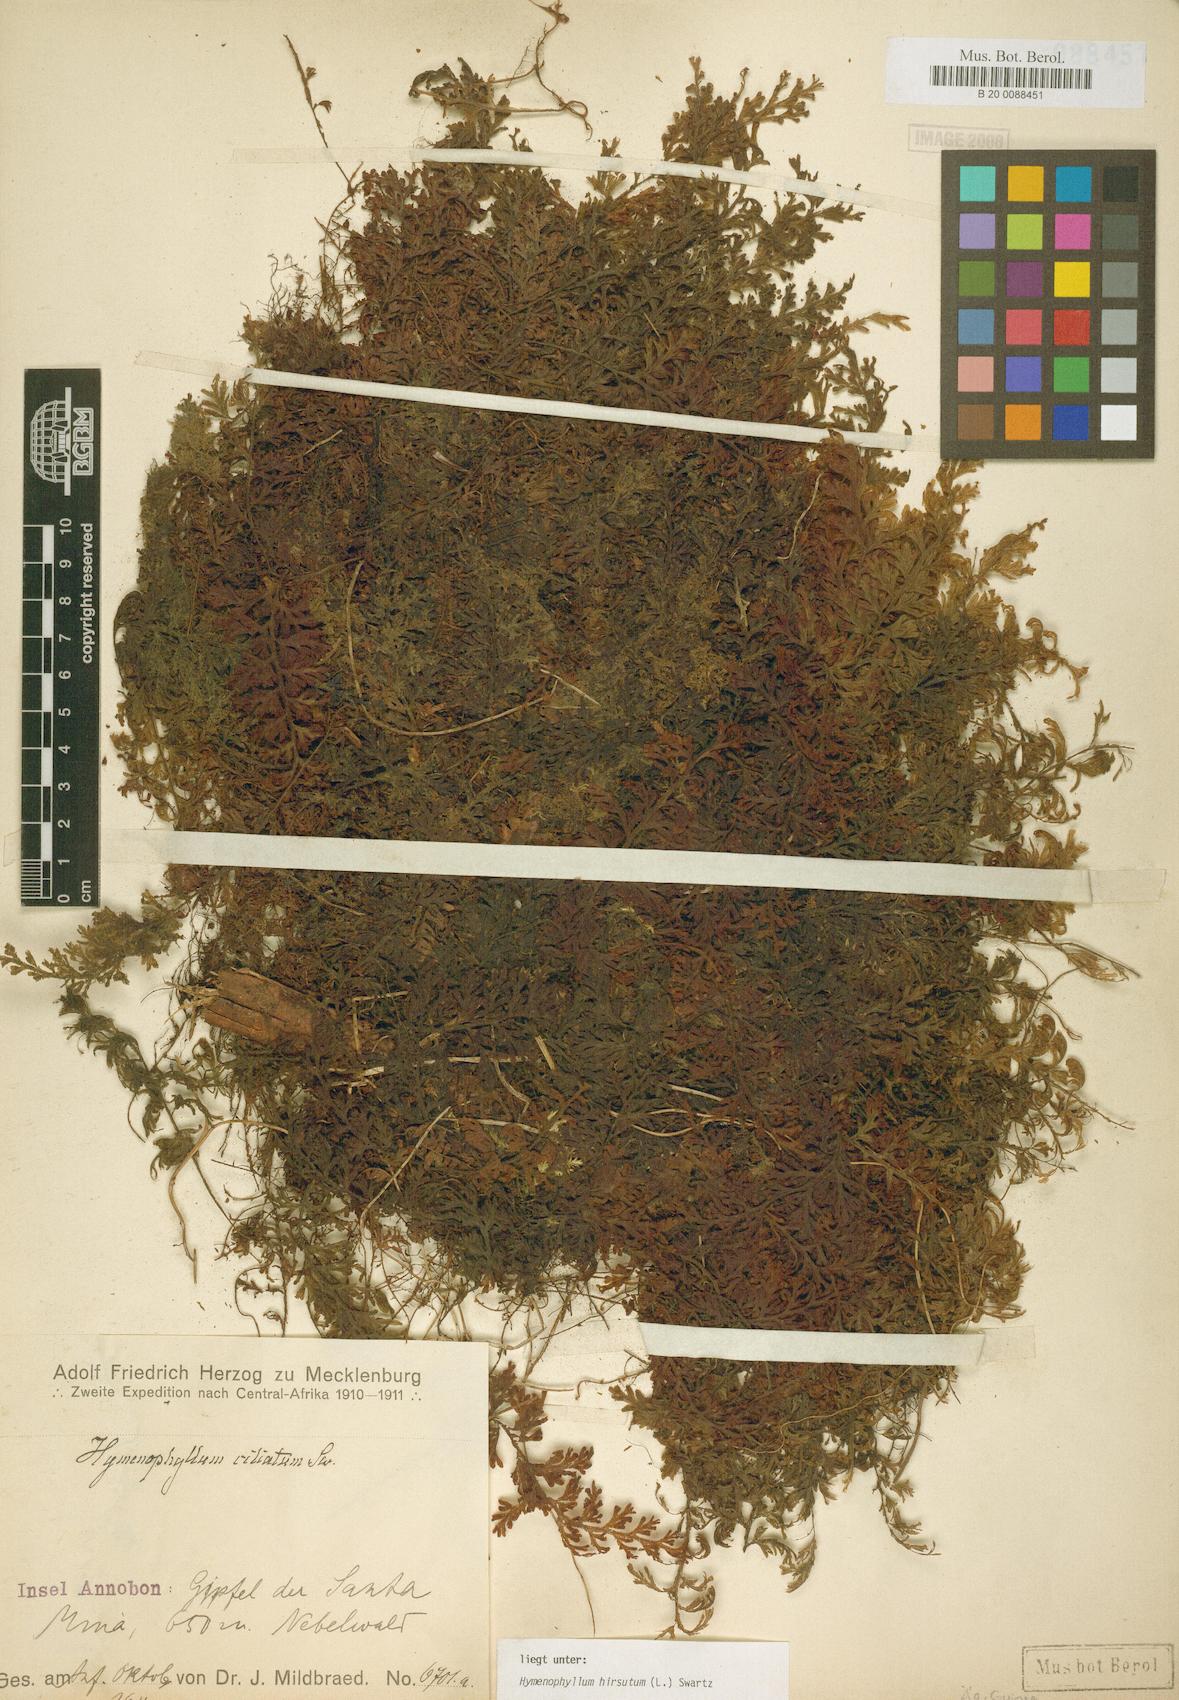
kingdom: Plantae
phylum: Tracheophyta
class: Polypodiopsida
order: Hymenophyllales
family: Hymenophyllaceae
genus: Hymenophyllum
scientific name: Hymenophyllum hirsutum
